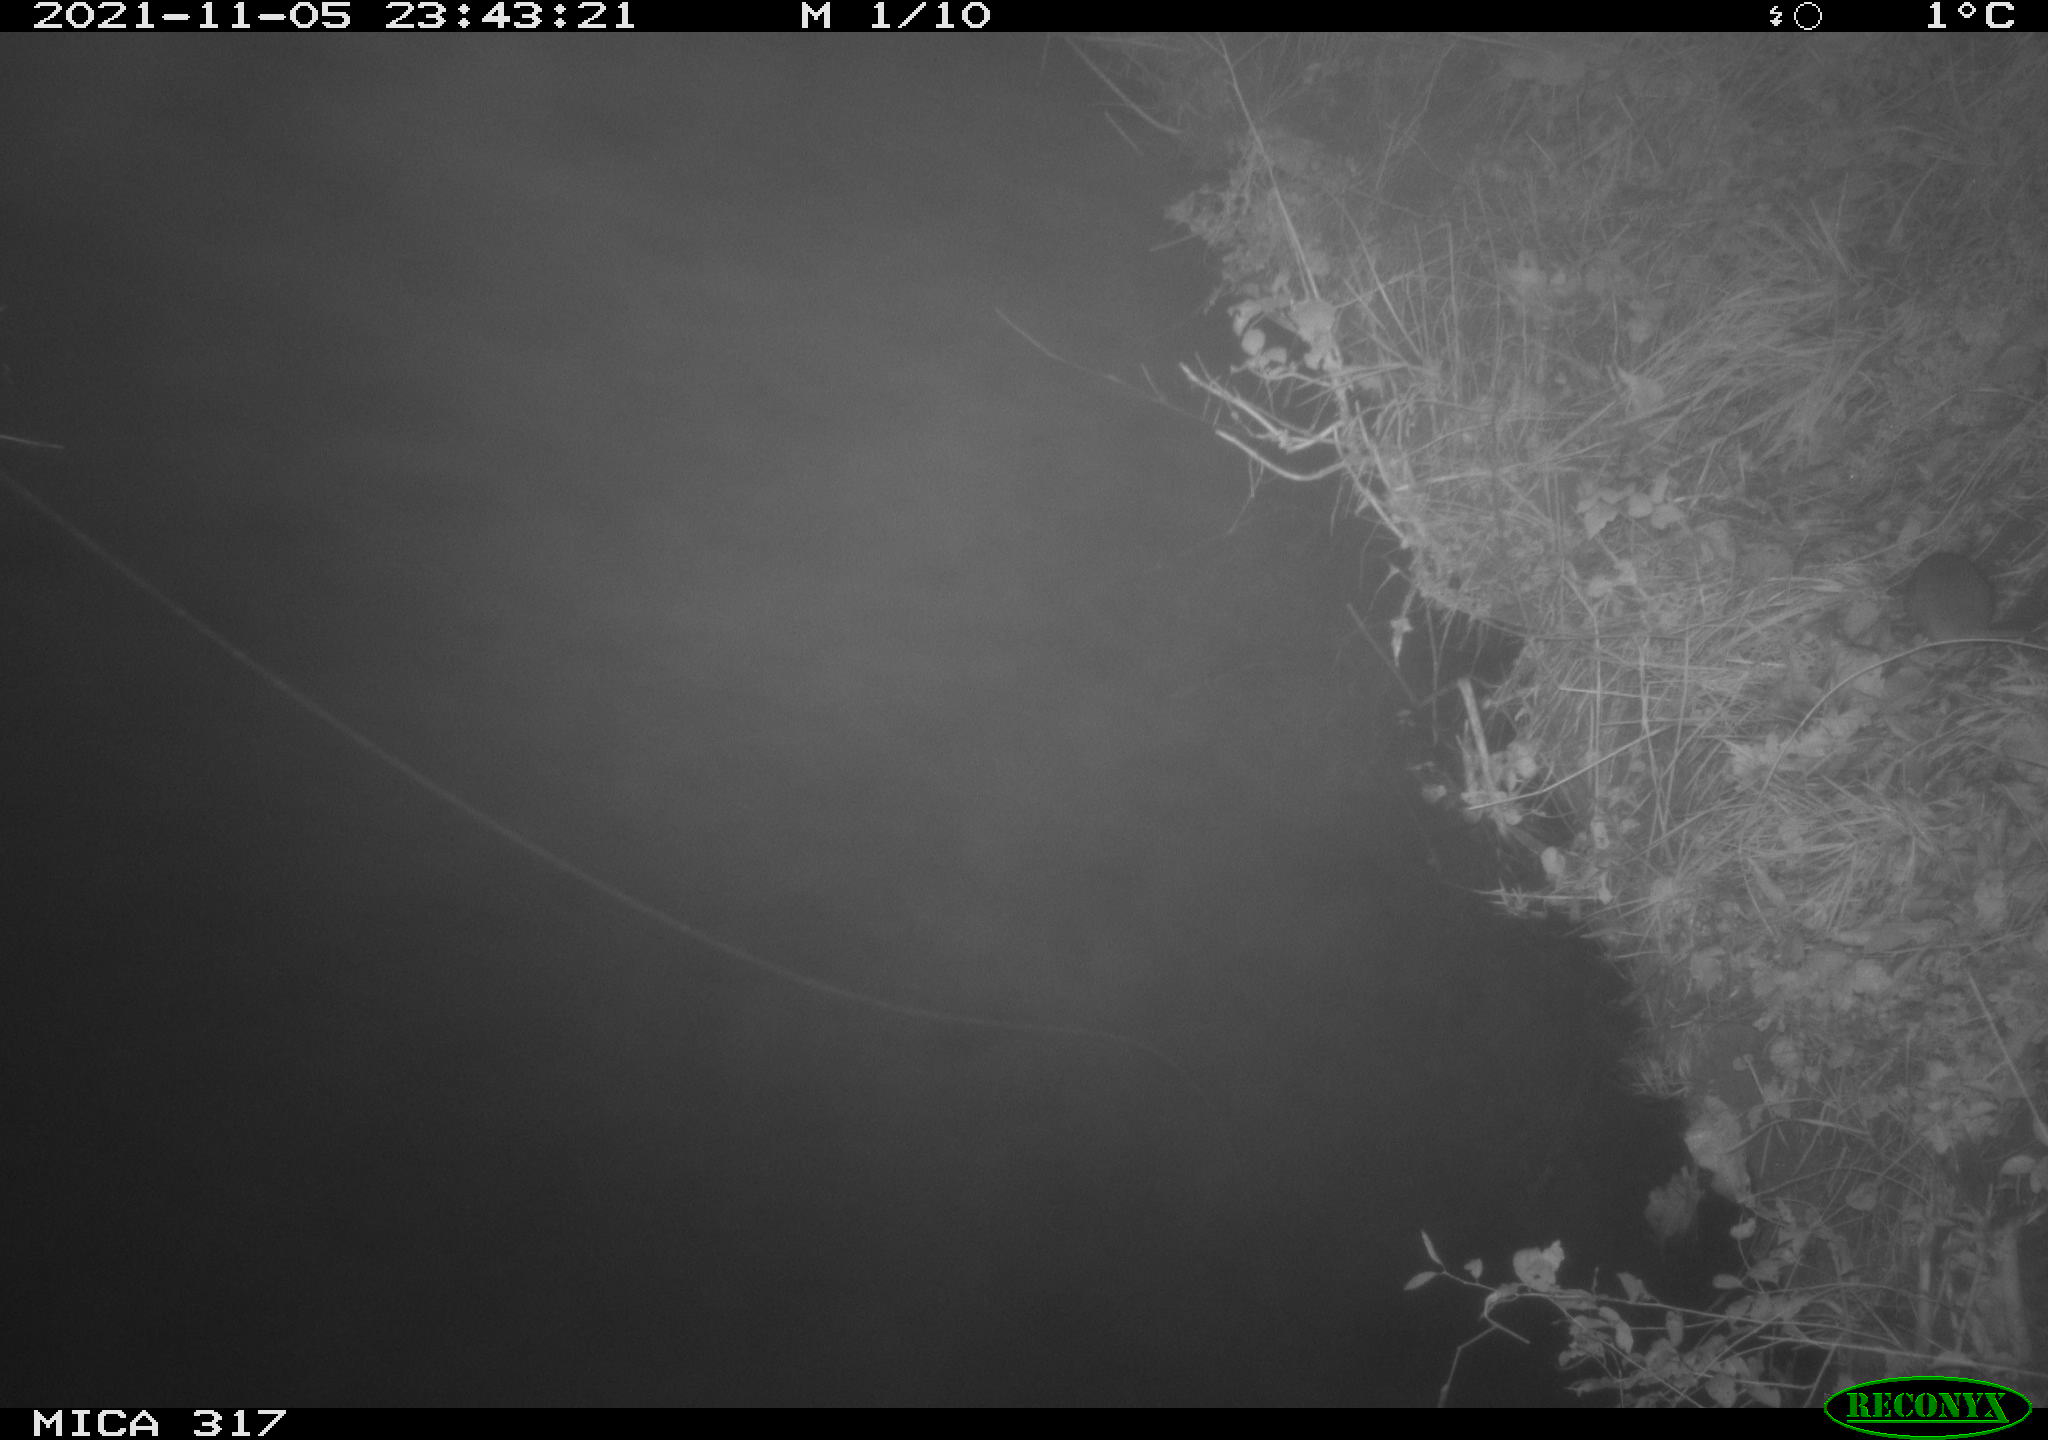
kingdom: Animalia
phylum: Chordata
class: Mammalia
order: Rodentia
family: Muridae
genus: Rattus
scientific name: Rattus norvegicus
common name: Brown rat
